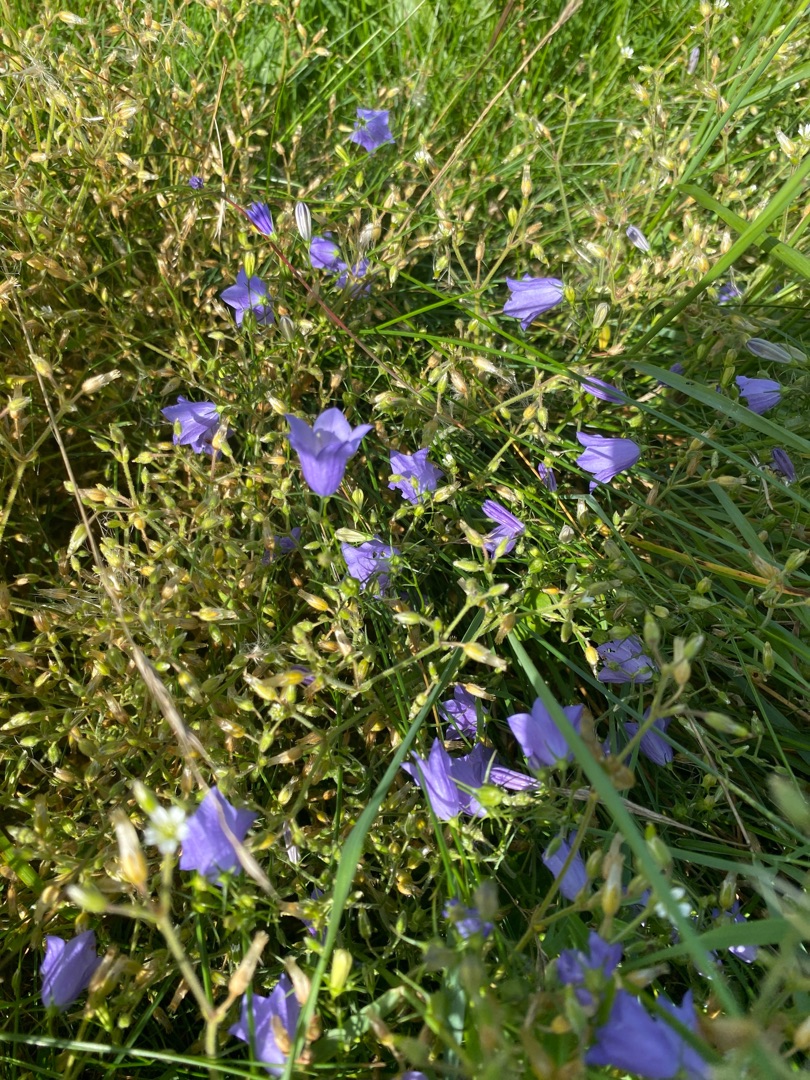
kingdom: Plantae
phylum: Tracheophyta
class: Magnoliopsida
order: Asterales
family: Campanulaceae
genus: Campanula
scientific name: Campanula rotundifolia
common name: Liden klokke
